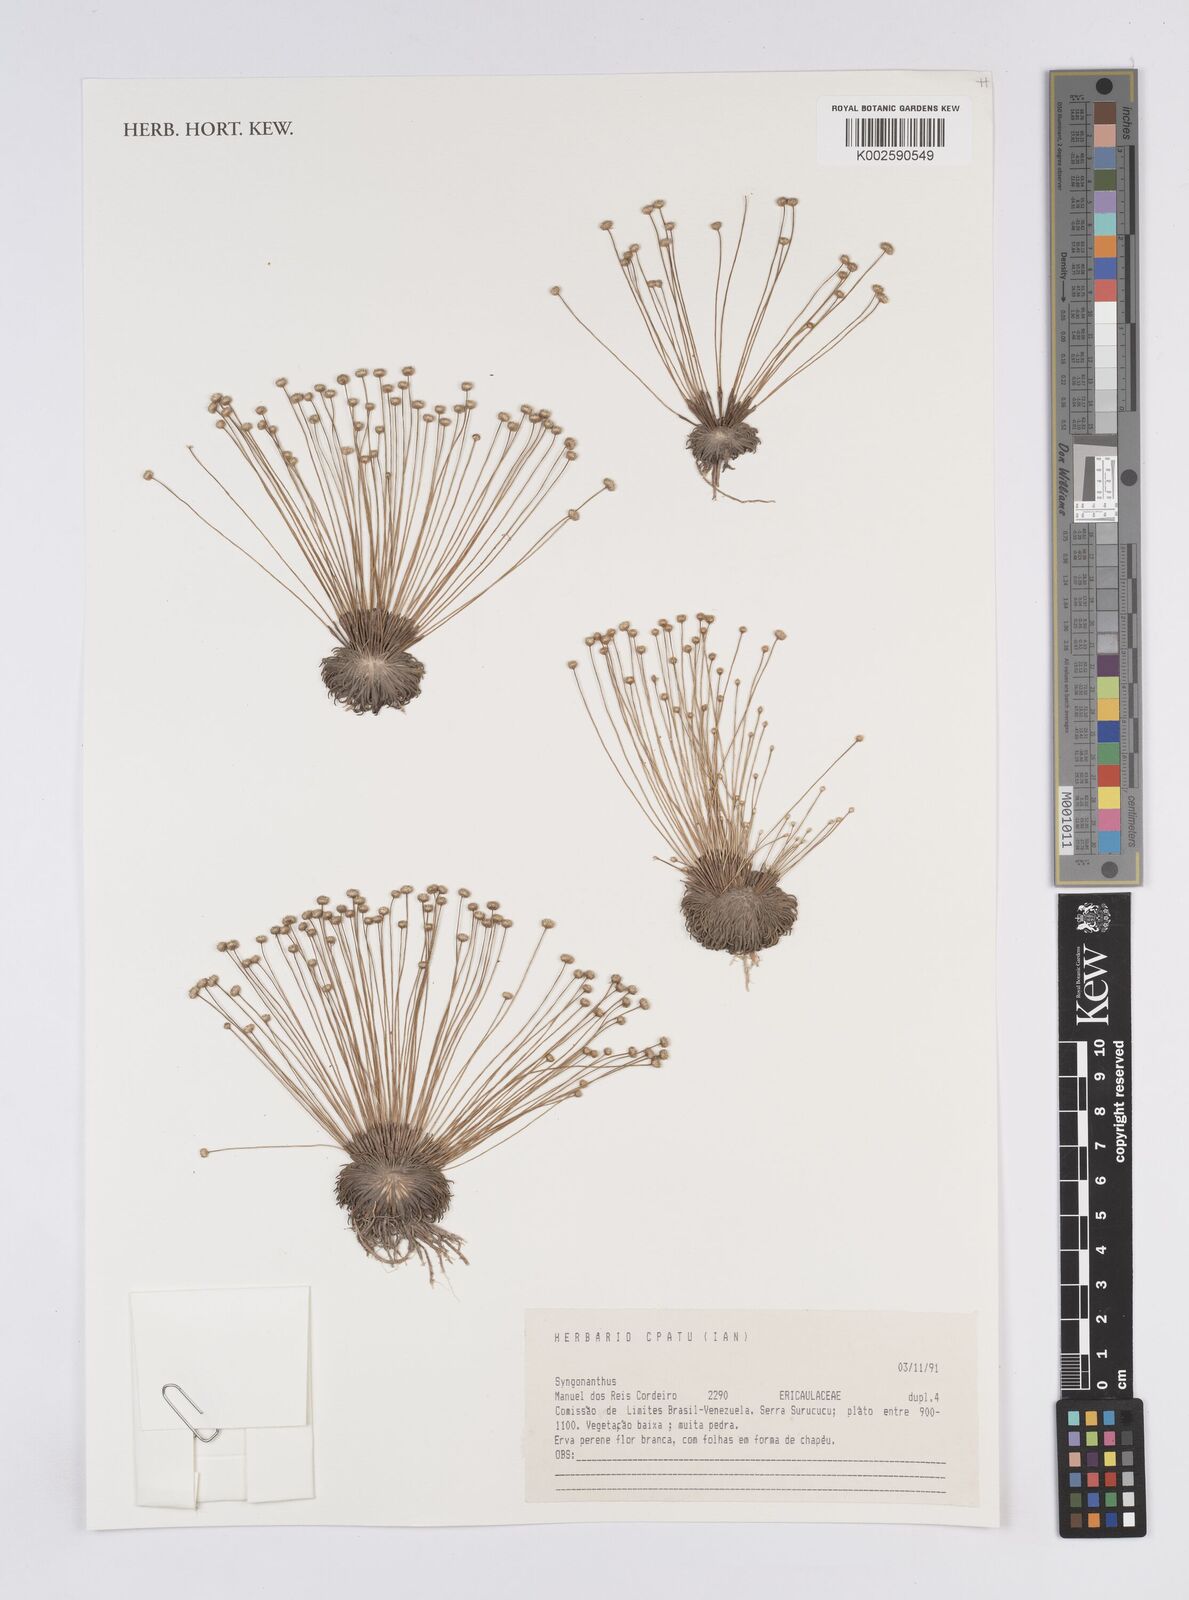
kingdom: Plantae
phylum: Tracheophyta
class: Liliopsida
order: Poales
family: Eriocaulaceae
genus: Syngonanthus
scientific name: Syngonanthus
